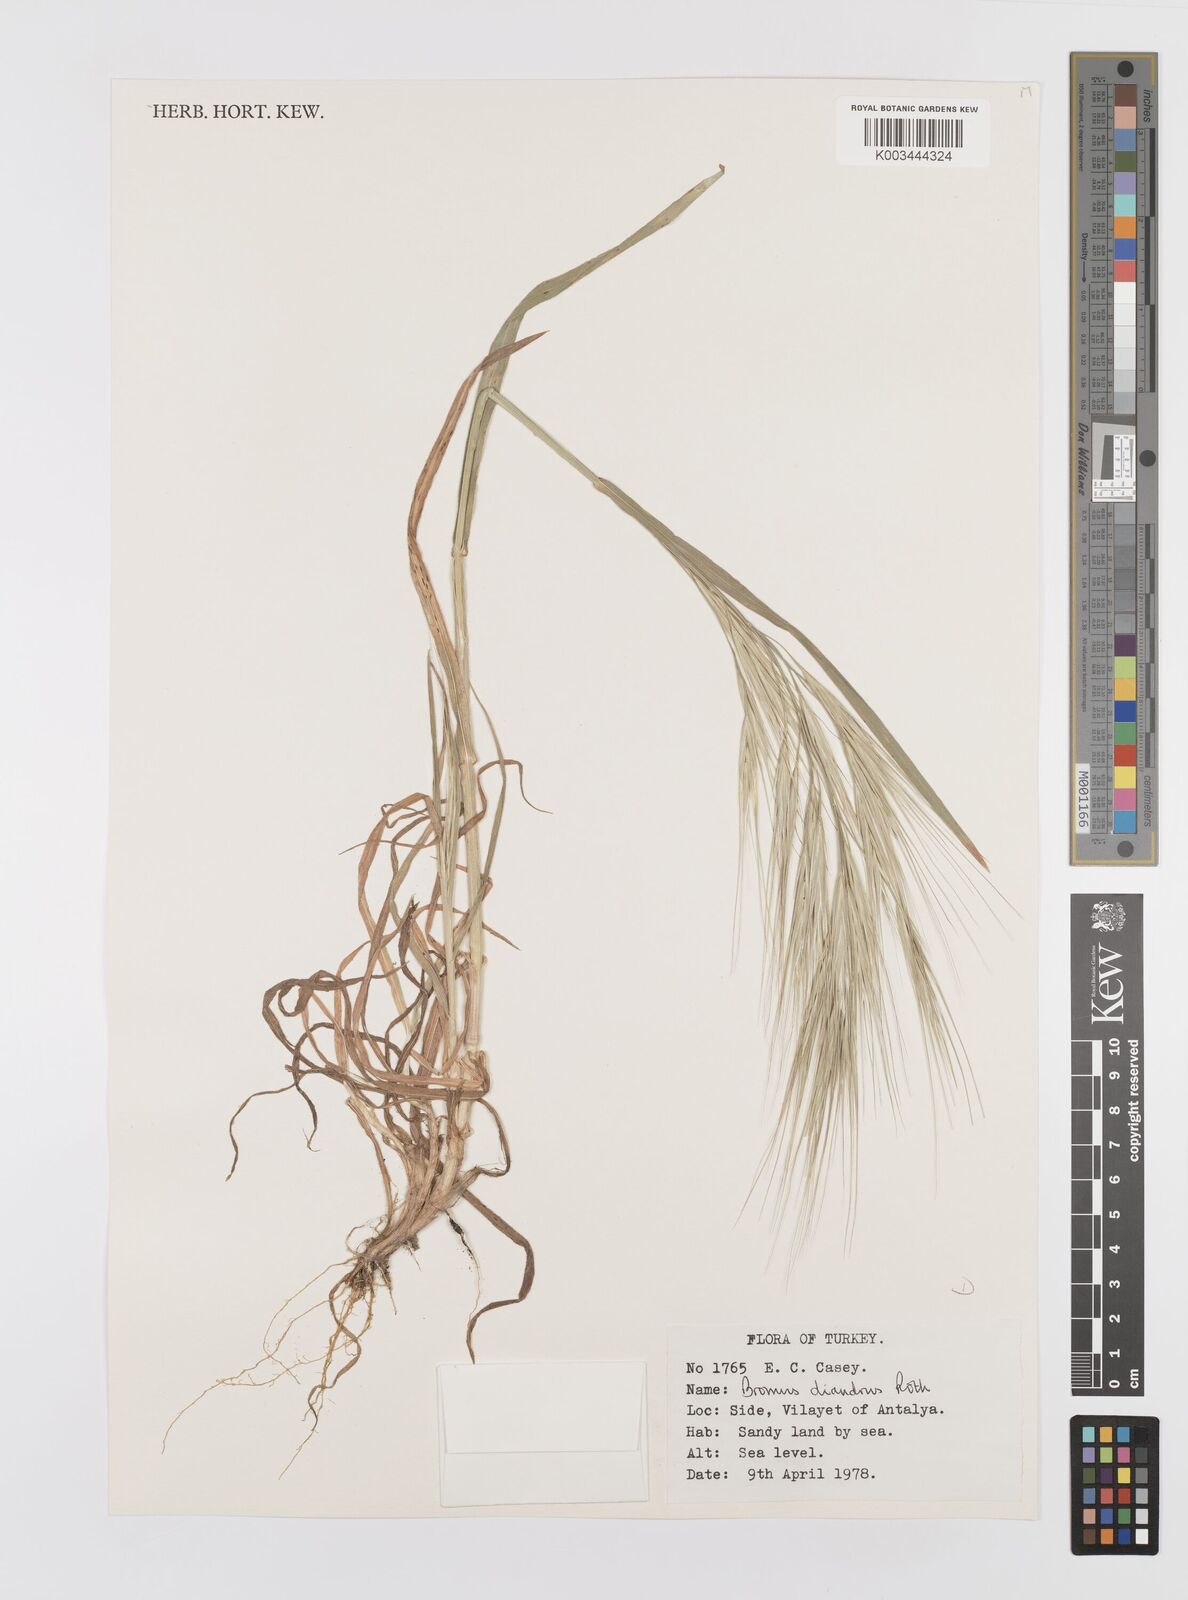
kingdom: Plantae
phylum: Tracheophyta
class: Liliopsida
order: Poales
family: Poaceae
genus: Bromus
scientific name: Bromus diandrus
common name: Ripgut brome
